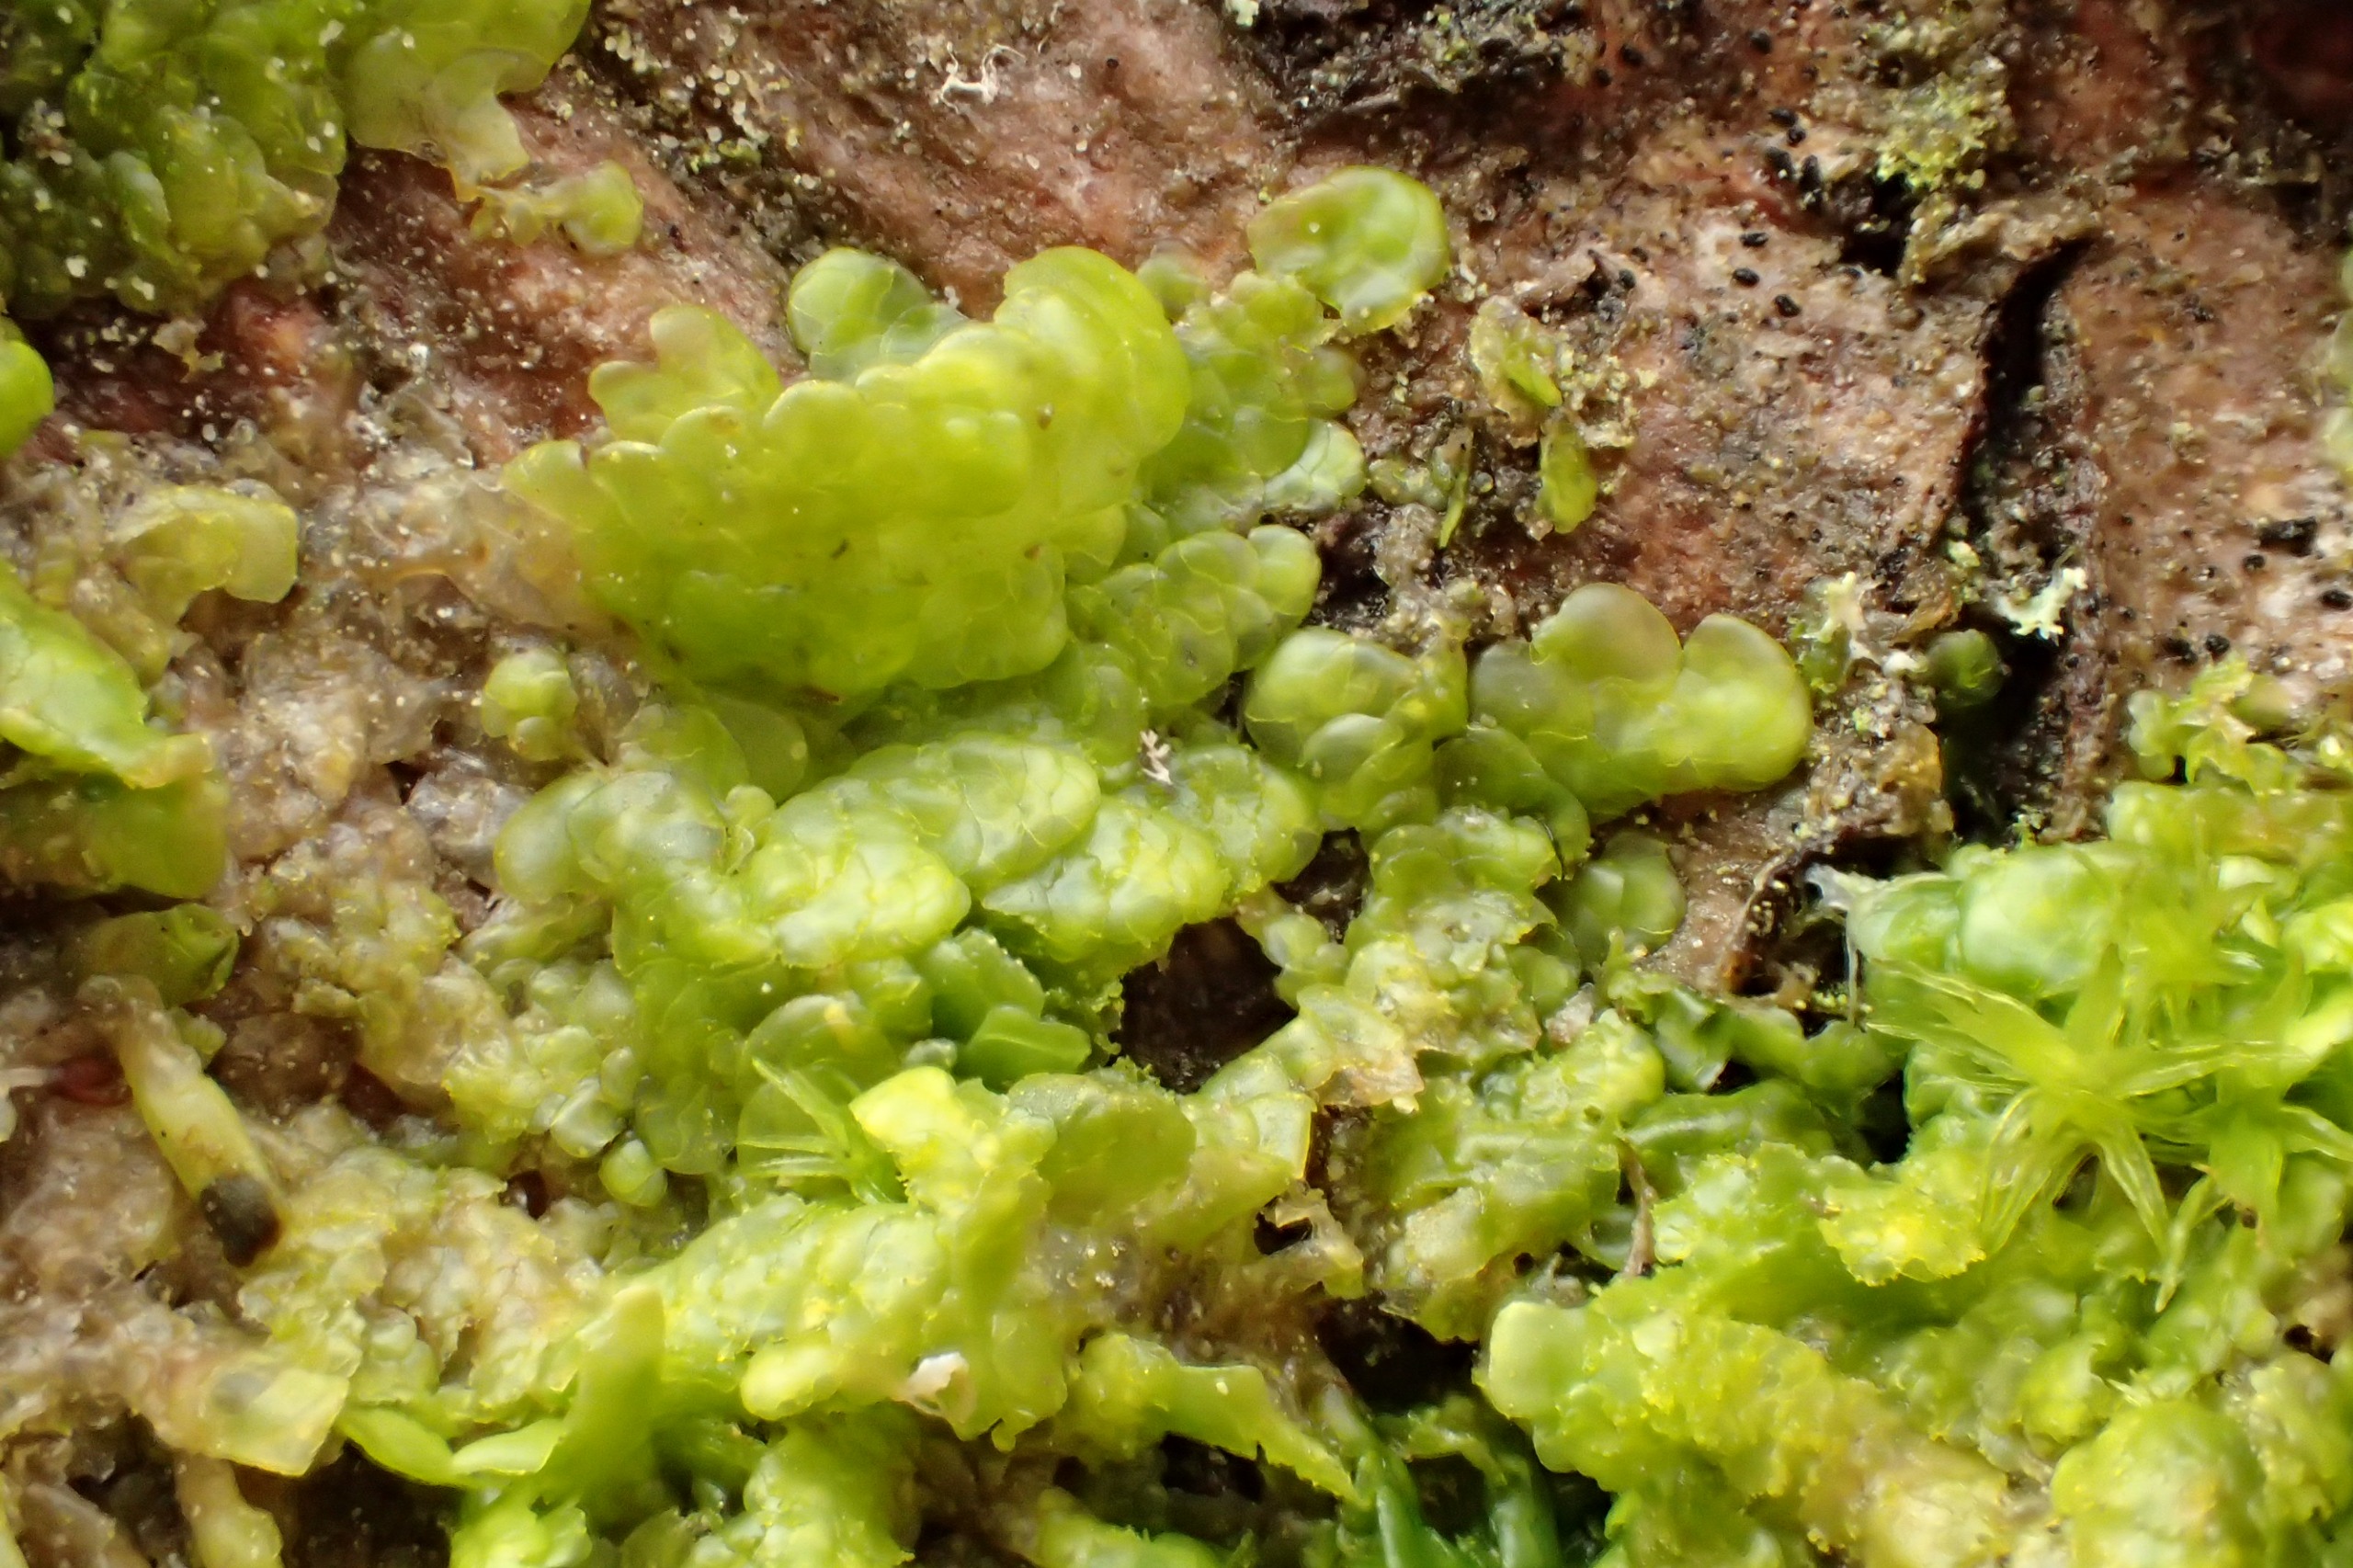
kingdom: Plantae
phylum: Marchantiophyta
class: Jungermanniopsida
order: Porellales
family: Radulaceae
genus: Radula
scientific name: Radula complanata
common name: Almindelig spartelmos
